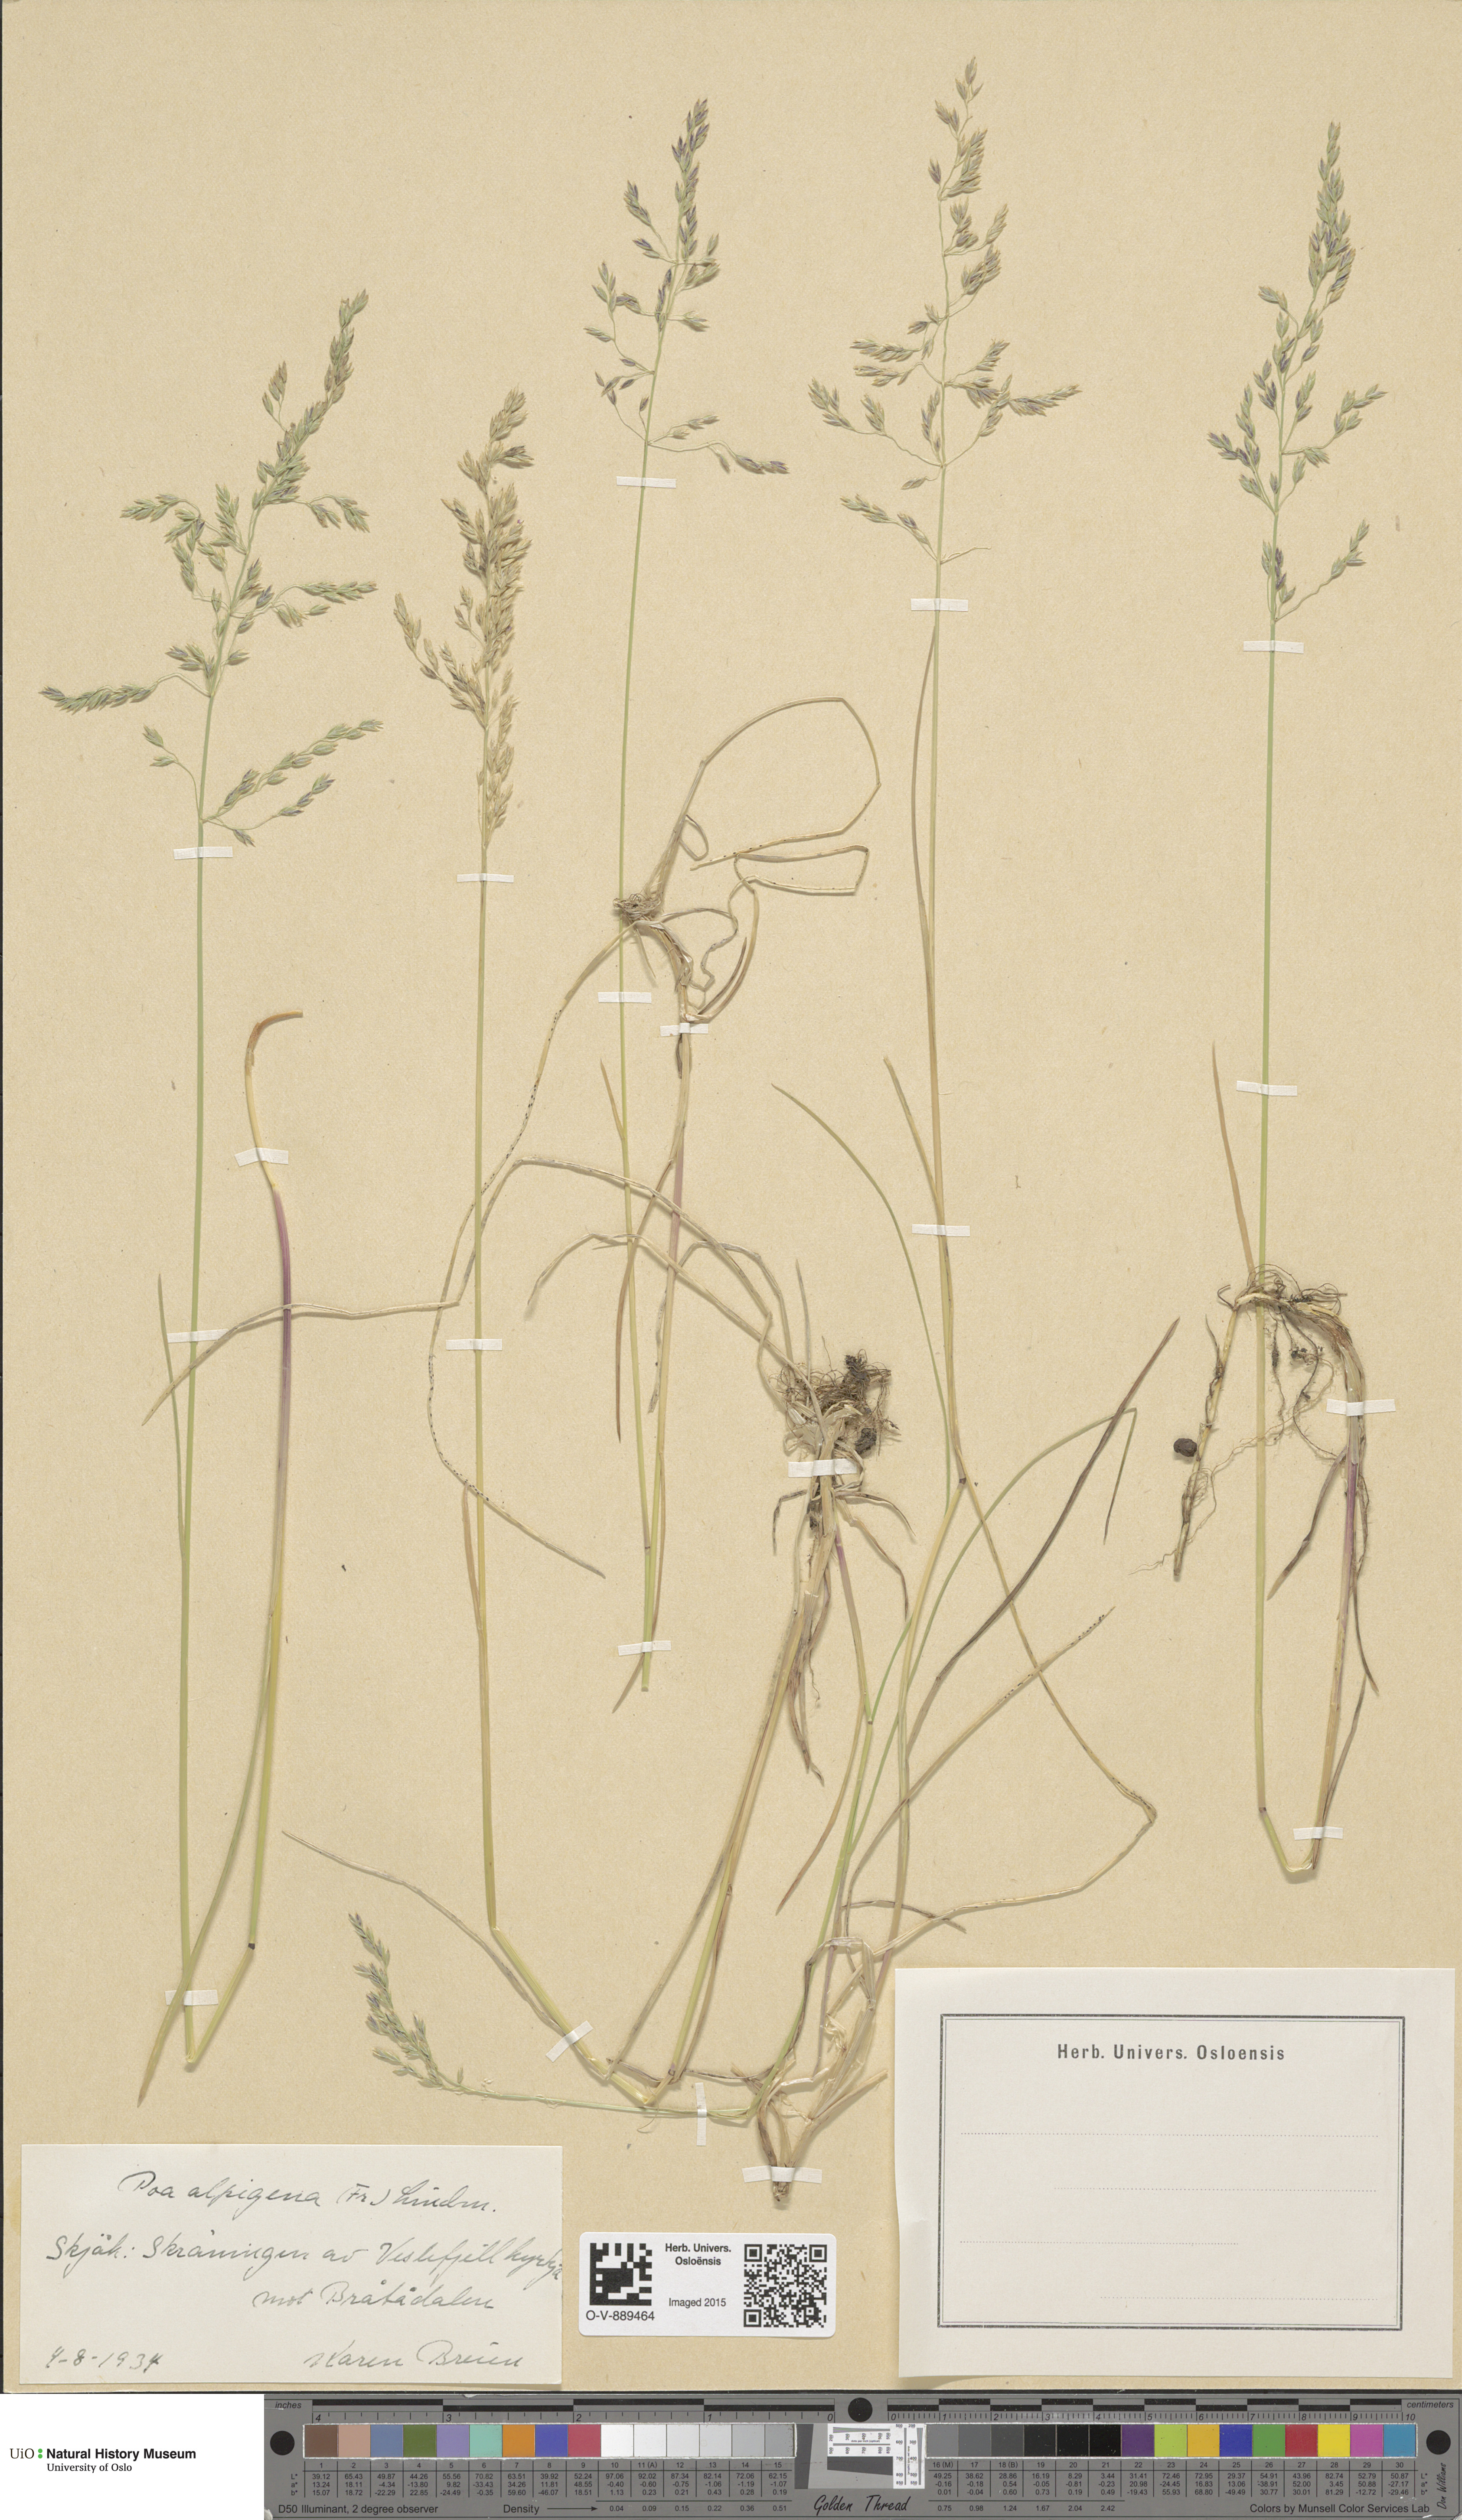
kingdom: Plantae
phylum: Tracheophyta
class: Liliopsida
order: Poales
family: Poaceae
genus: Poa
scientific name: Poa alpigena
